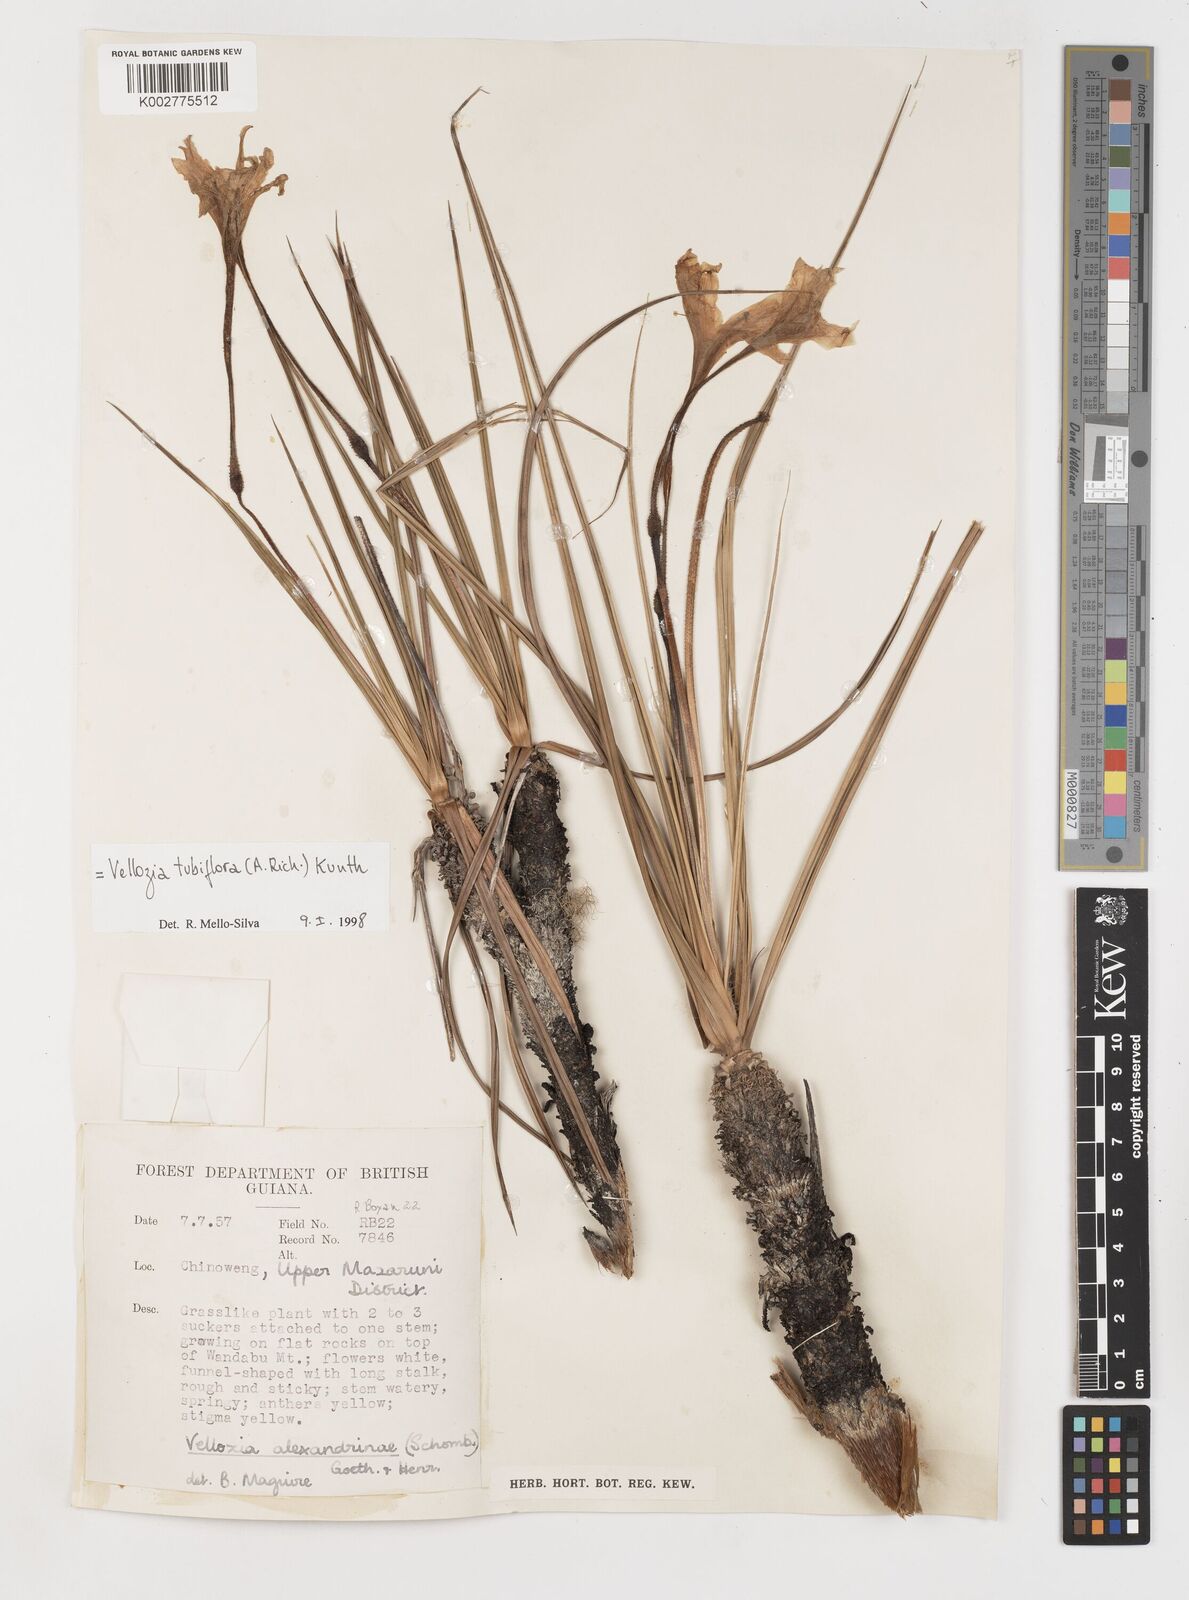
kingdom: Plantae
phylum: Tracheophyta
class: Liliopsida
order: Pandanales
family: Velloziaceae
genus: Vellozia
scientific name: Vellozia tubiflora
